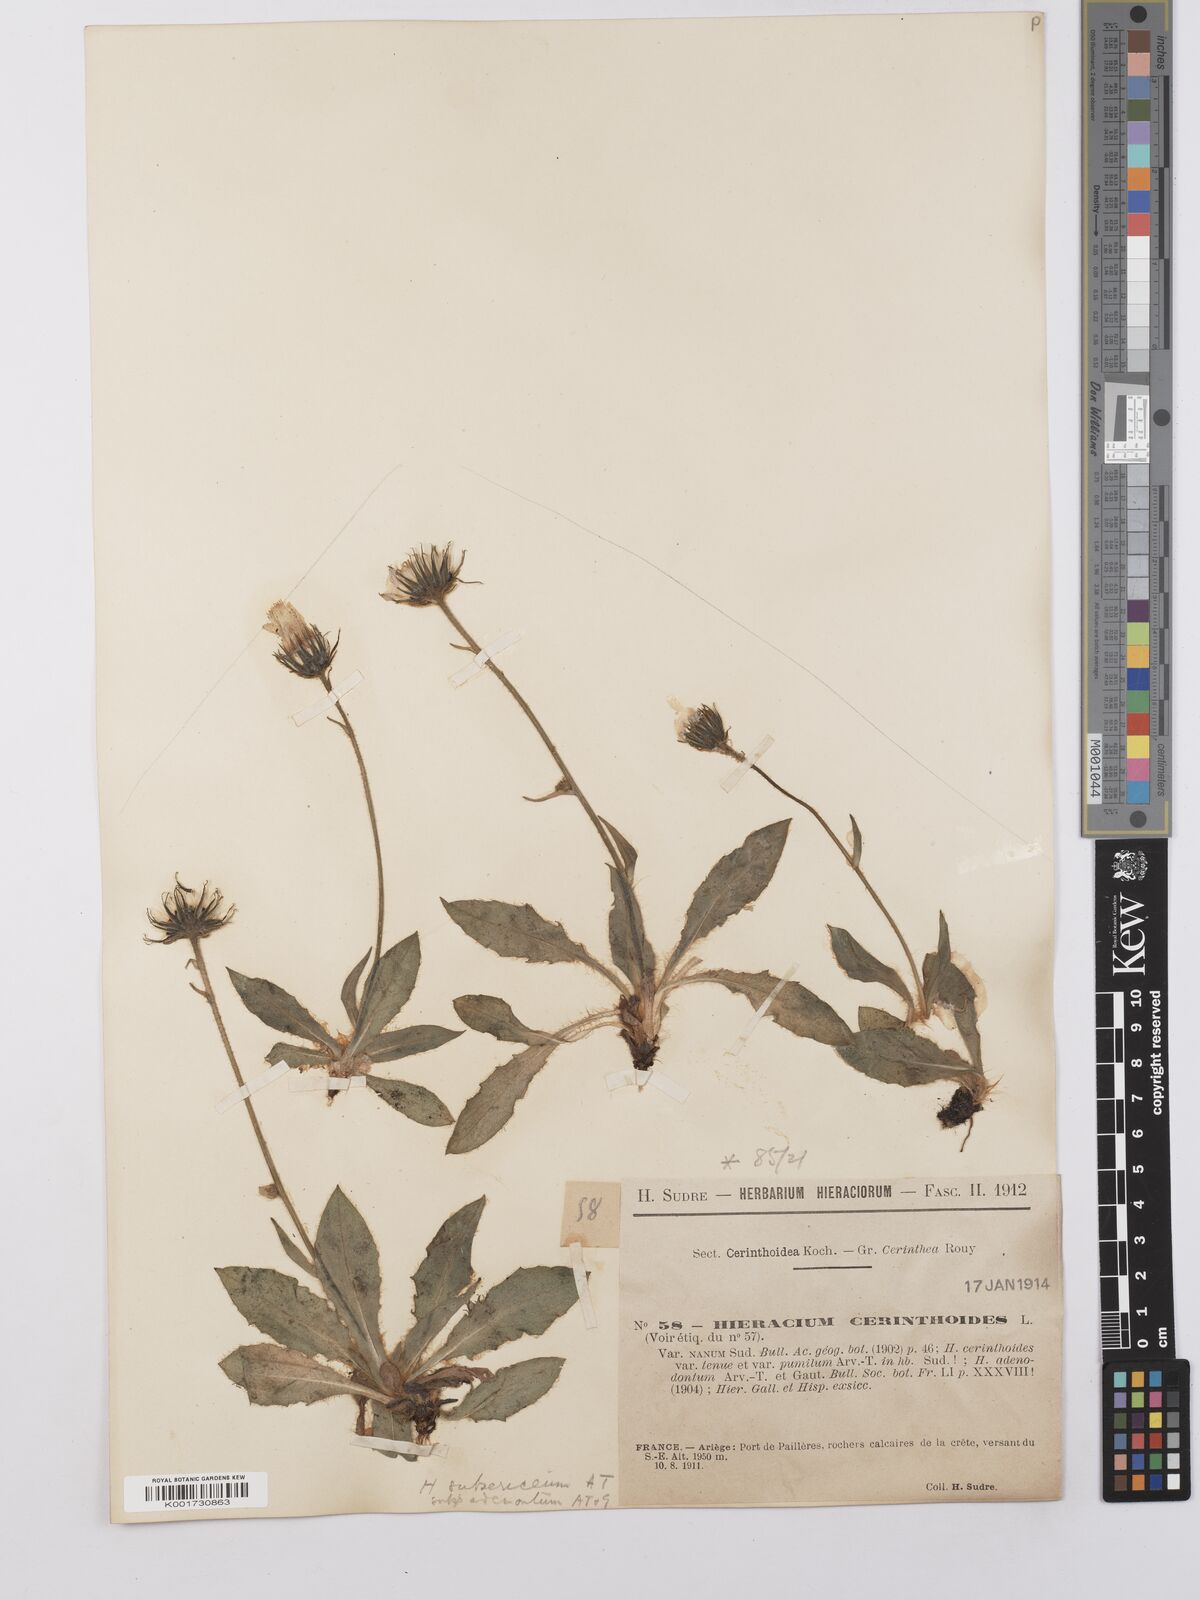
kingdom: Plantae
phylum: Tracheophyta
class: Magnoliopsida
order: Asterales
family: Asteraceae
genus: Hieracium
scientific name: Hieracium adenodontum
